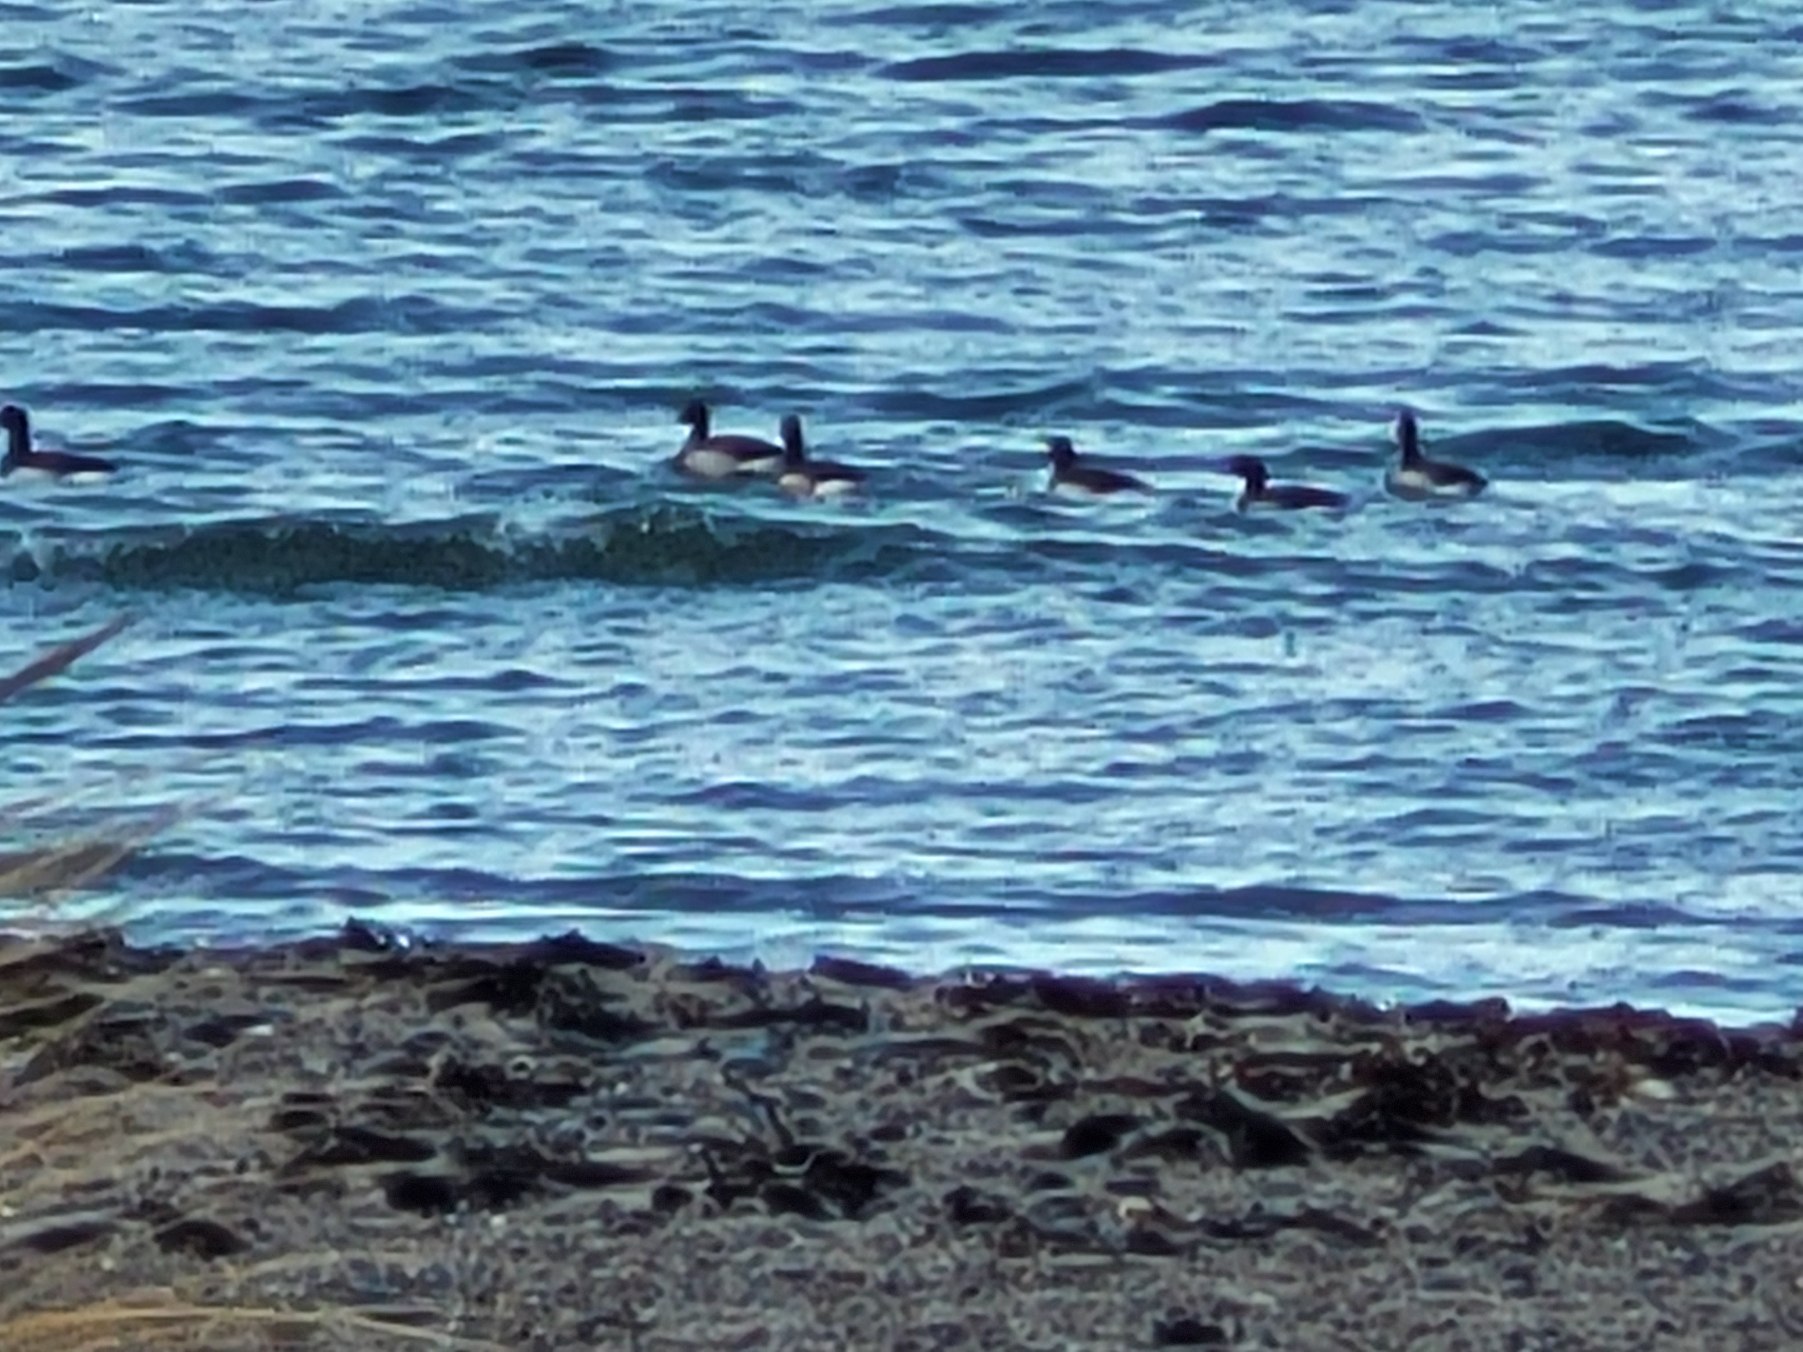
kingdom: Animalia
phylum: Chordata
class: Aves
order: Anseriformes
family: Anatidae
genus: Branta
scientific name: Branta bernicla
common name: Lysbuget knortegås
